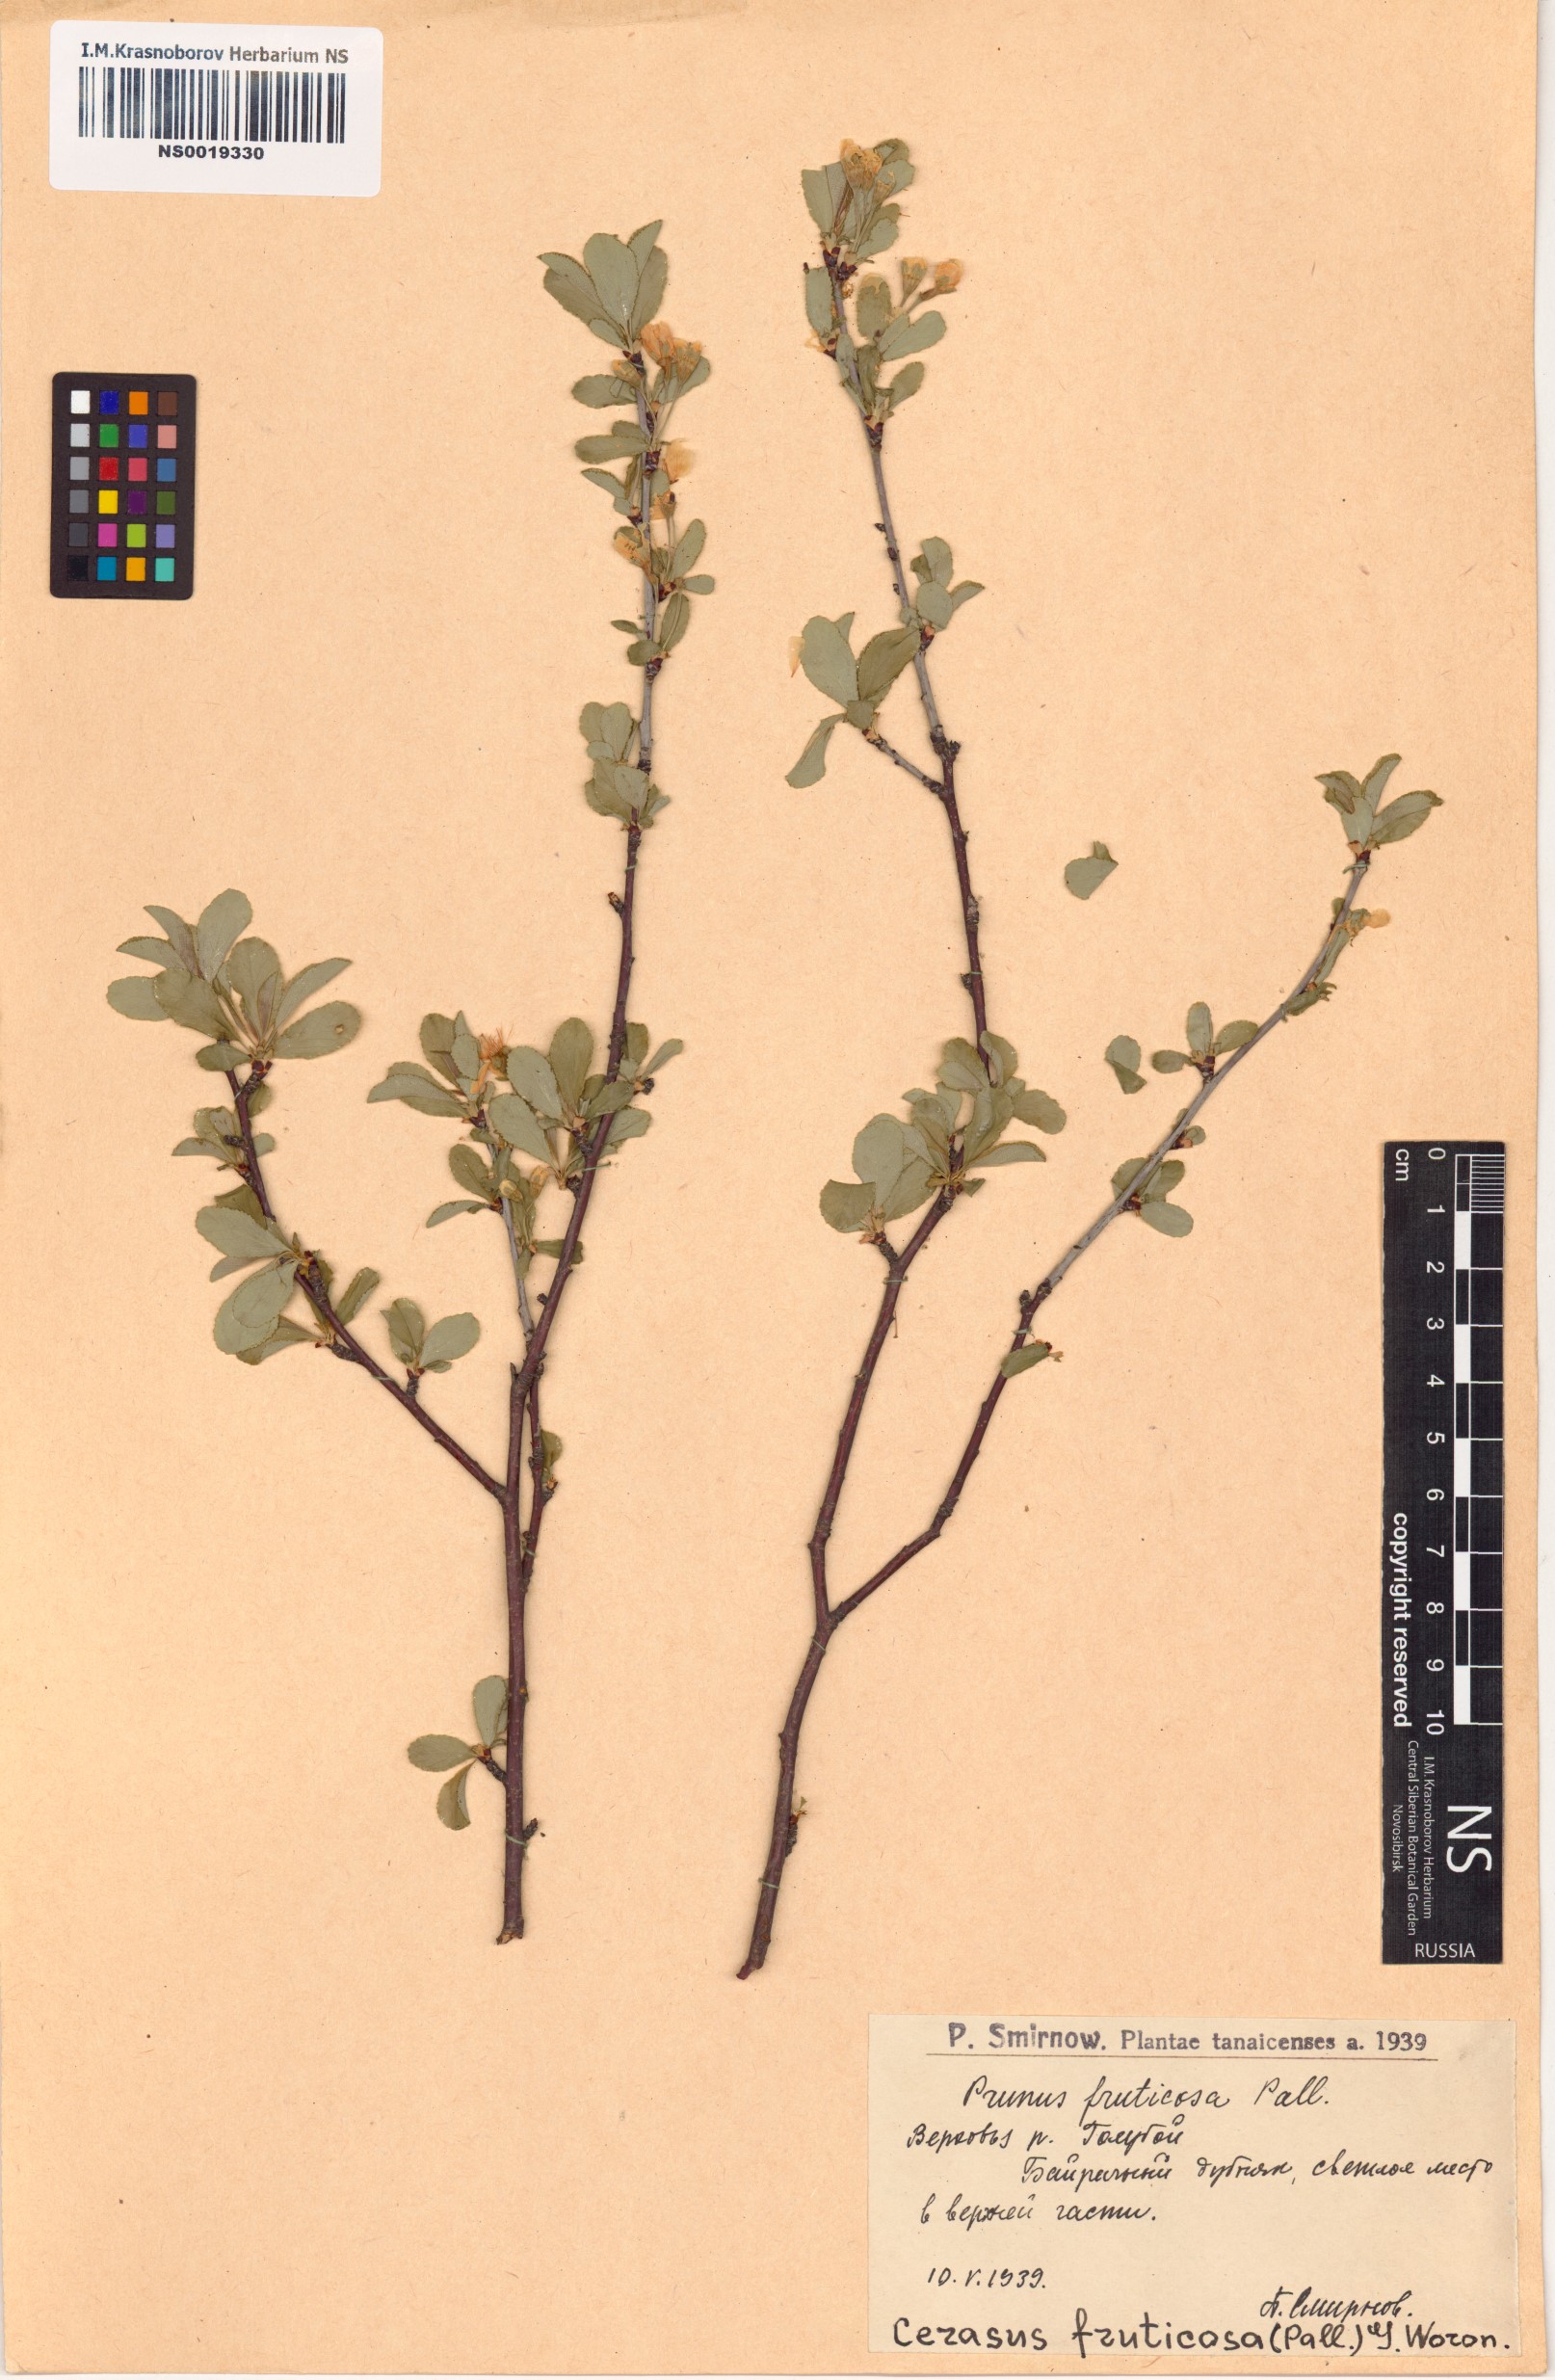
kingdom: Plantae
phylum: Tracheophyta
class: Magnoliopsida
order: Rosales
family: Rosaceae
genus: Prunus
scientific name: Prunus fruticosa
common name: European dwarf cherry
